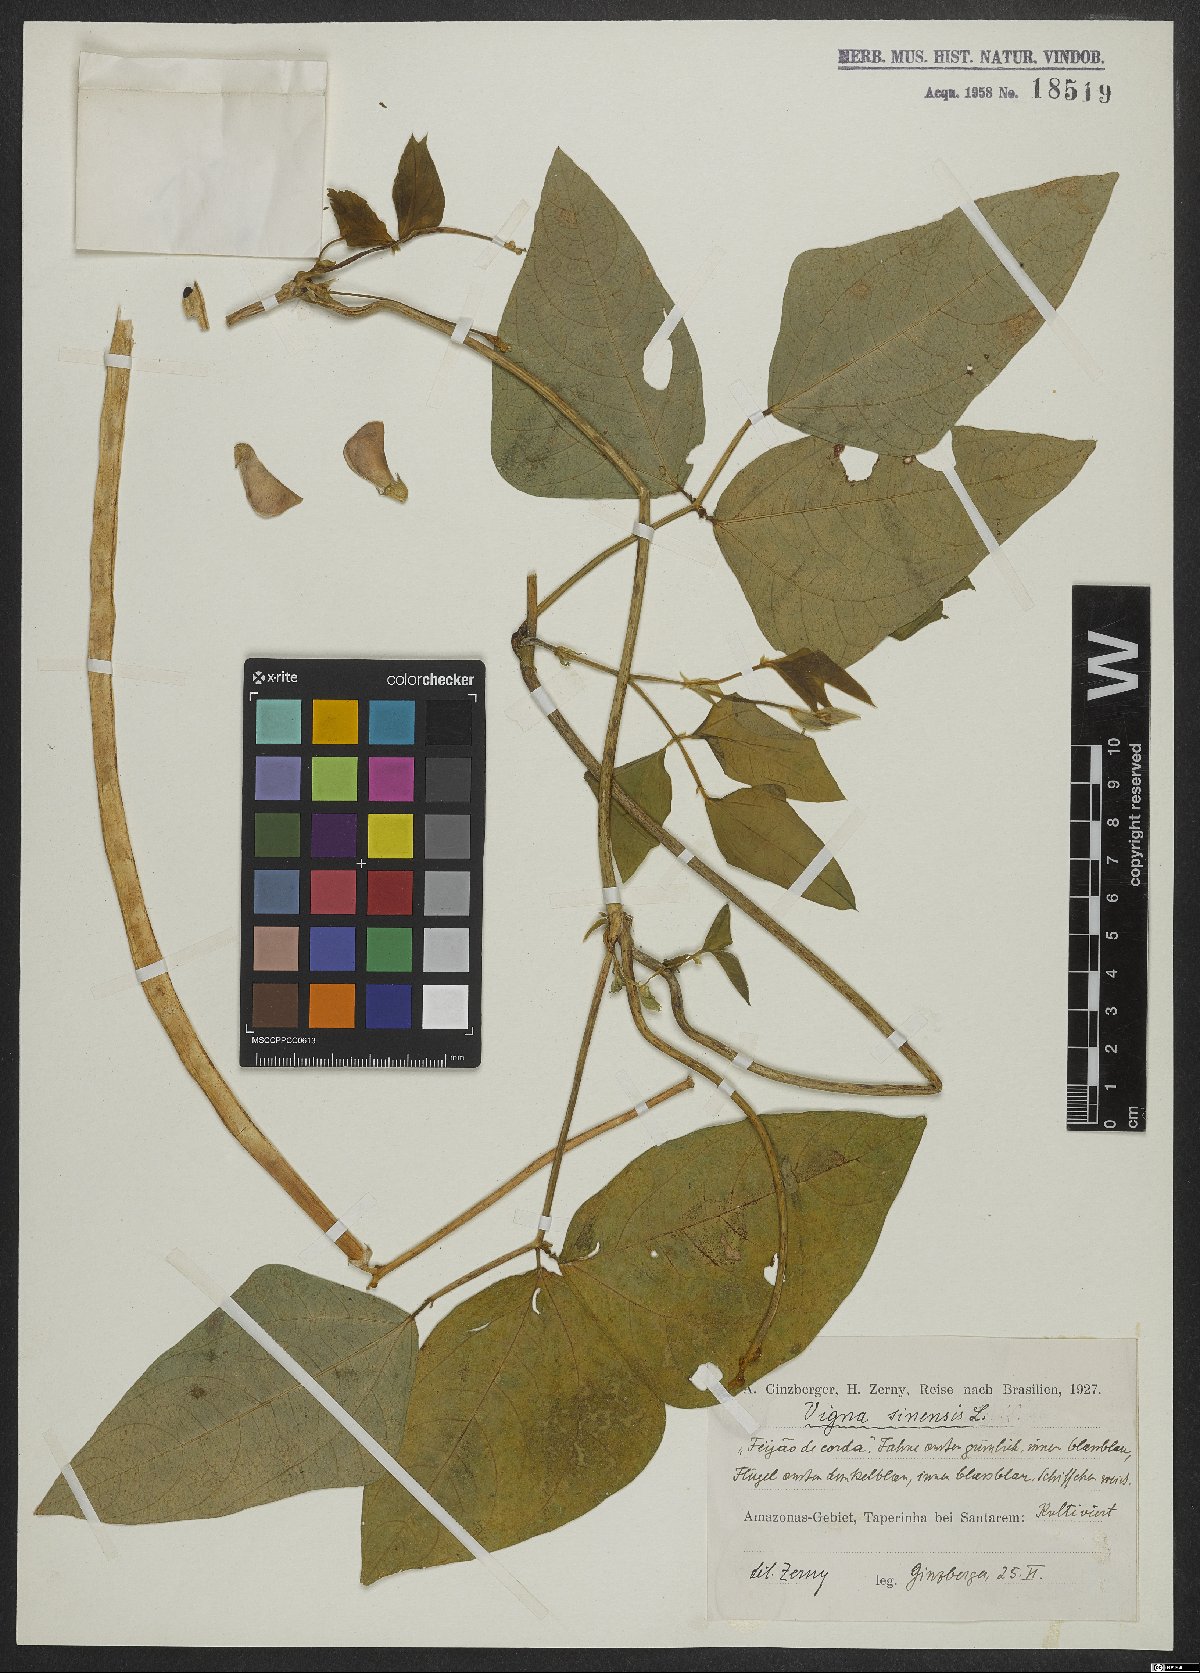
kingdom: Plantae
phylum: Tracheophyta
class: Magnoliopsida
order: Fabales
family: Fabaceae
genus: Vigna
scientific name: Vigna unguiculata
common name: Cowpea
